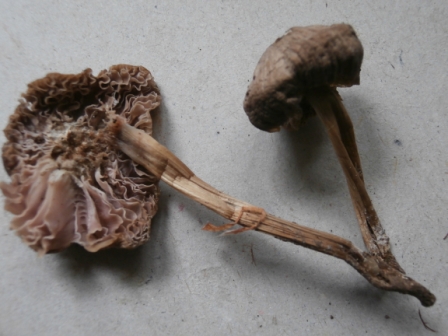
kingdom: Fungi
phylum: Basidiomycota
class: Agaricomycetes
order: Agaricales
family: Mycenaceae
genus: Mycena
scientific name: Mycena galericulata
